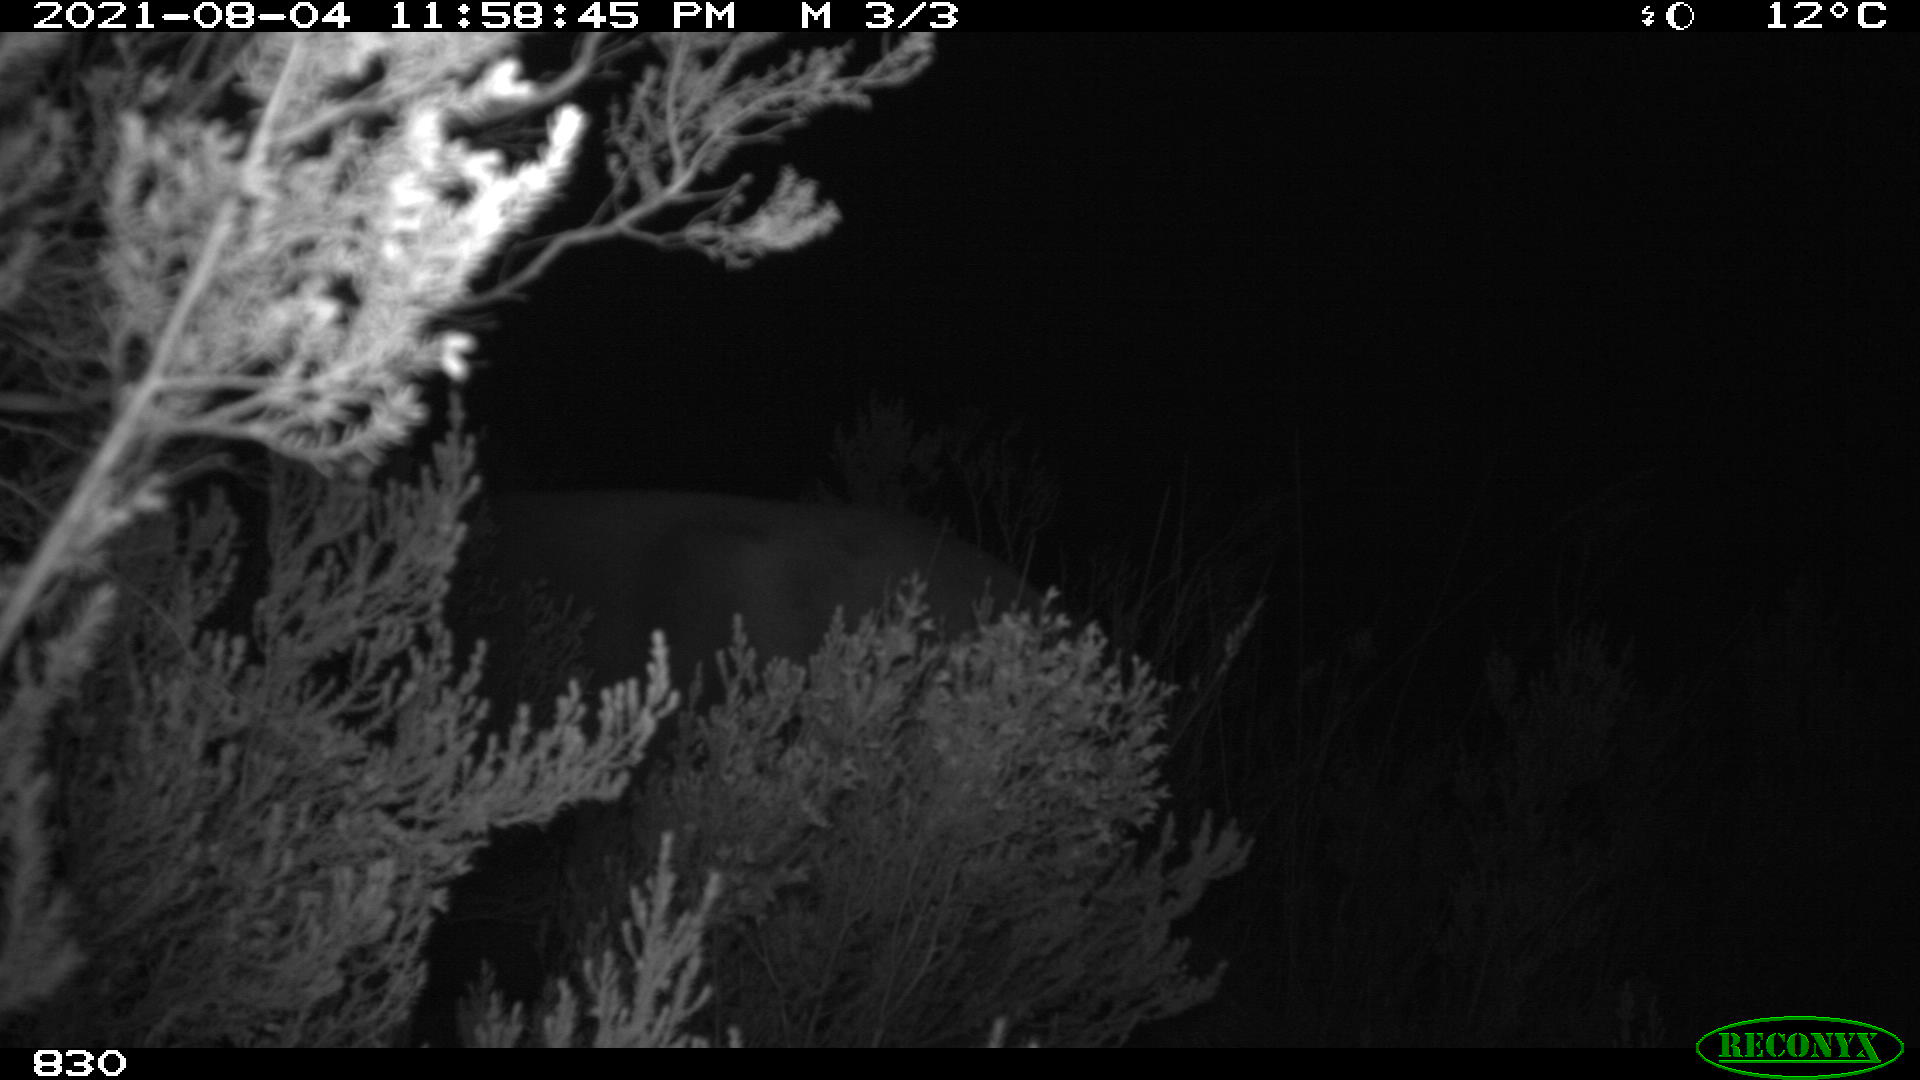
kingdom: Animalia
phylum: Chordata
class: Mammalia
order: Perissodactyla
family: Equidae
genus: Equus
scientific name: Equus caballus
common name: Horse
